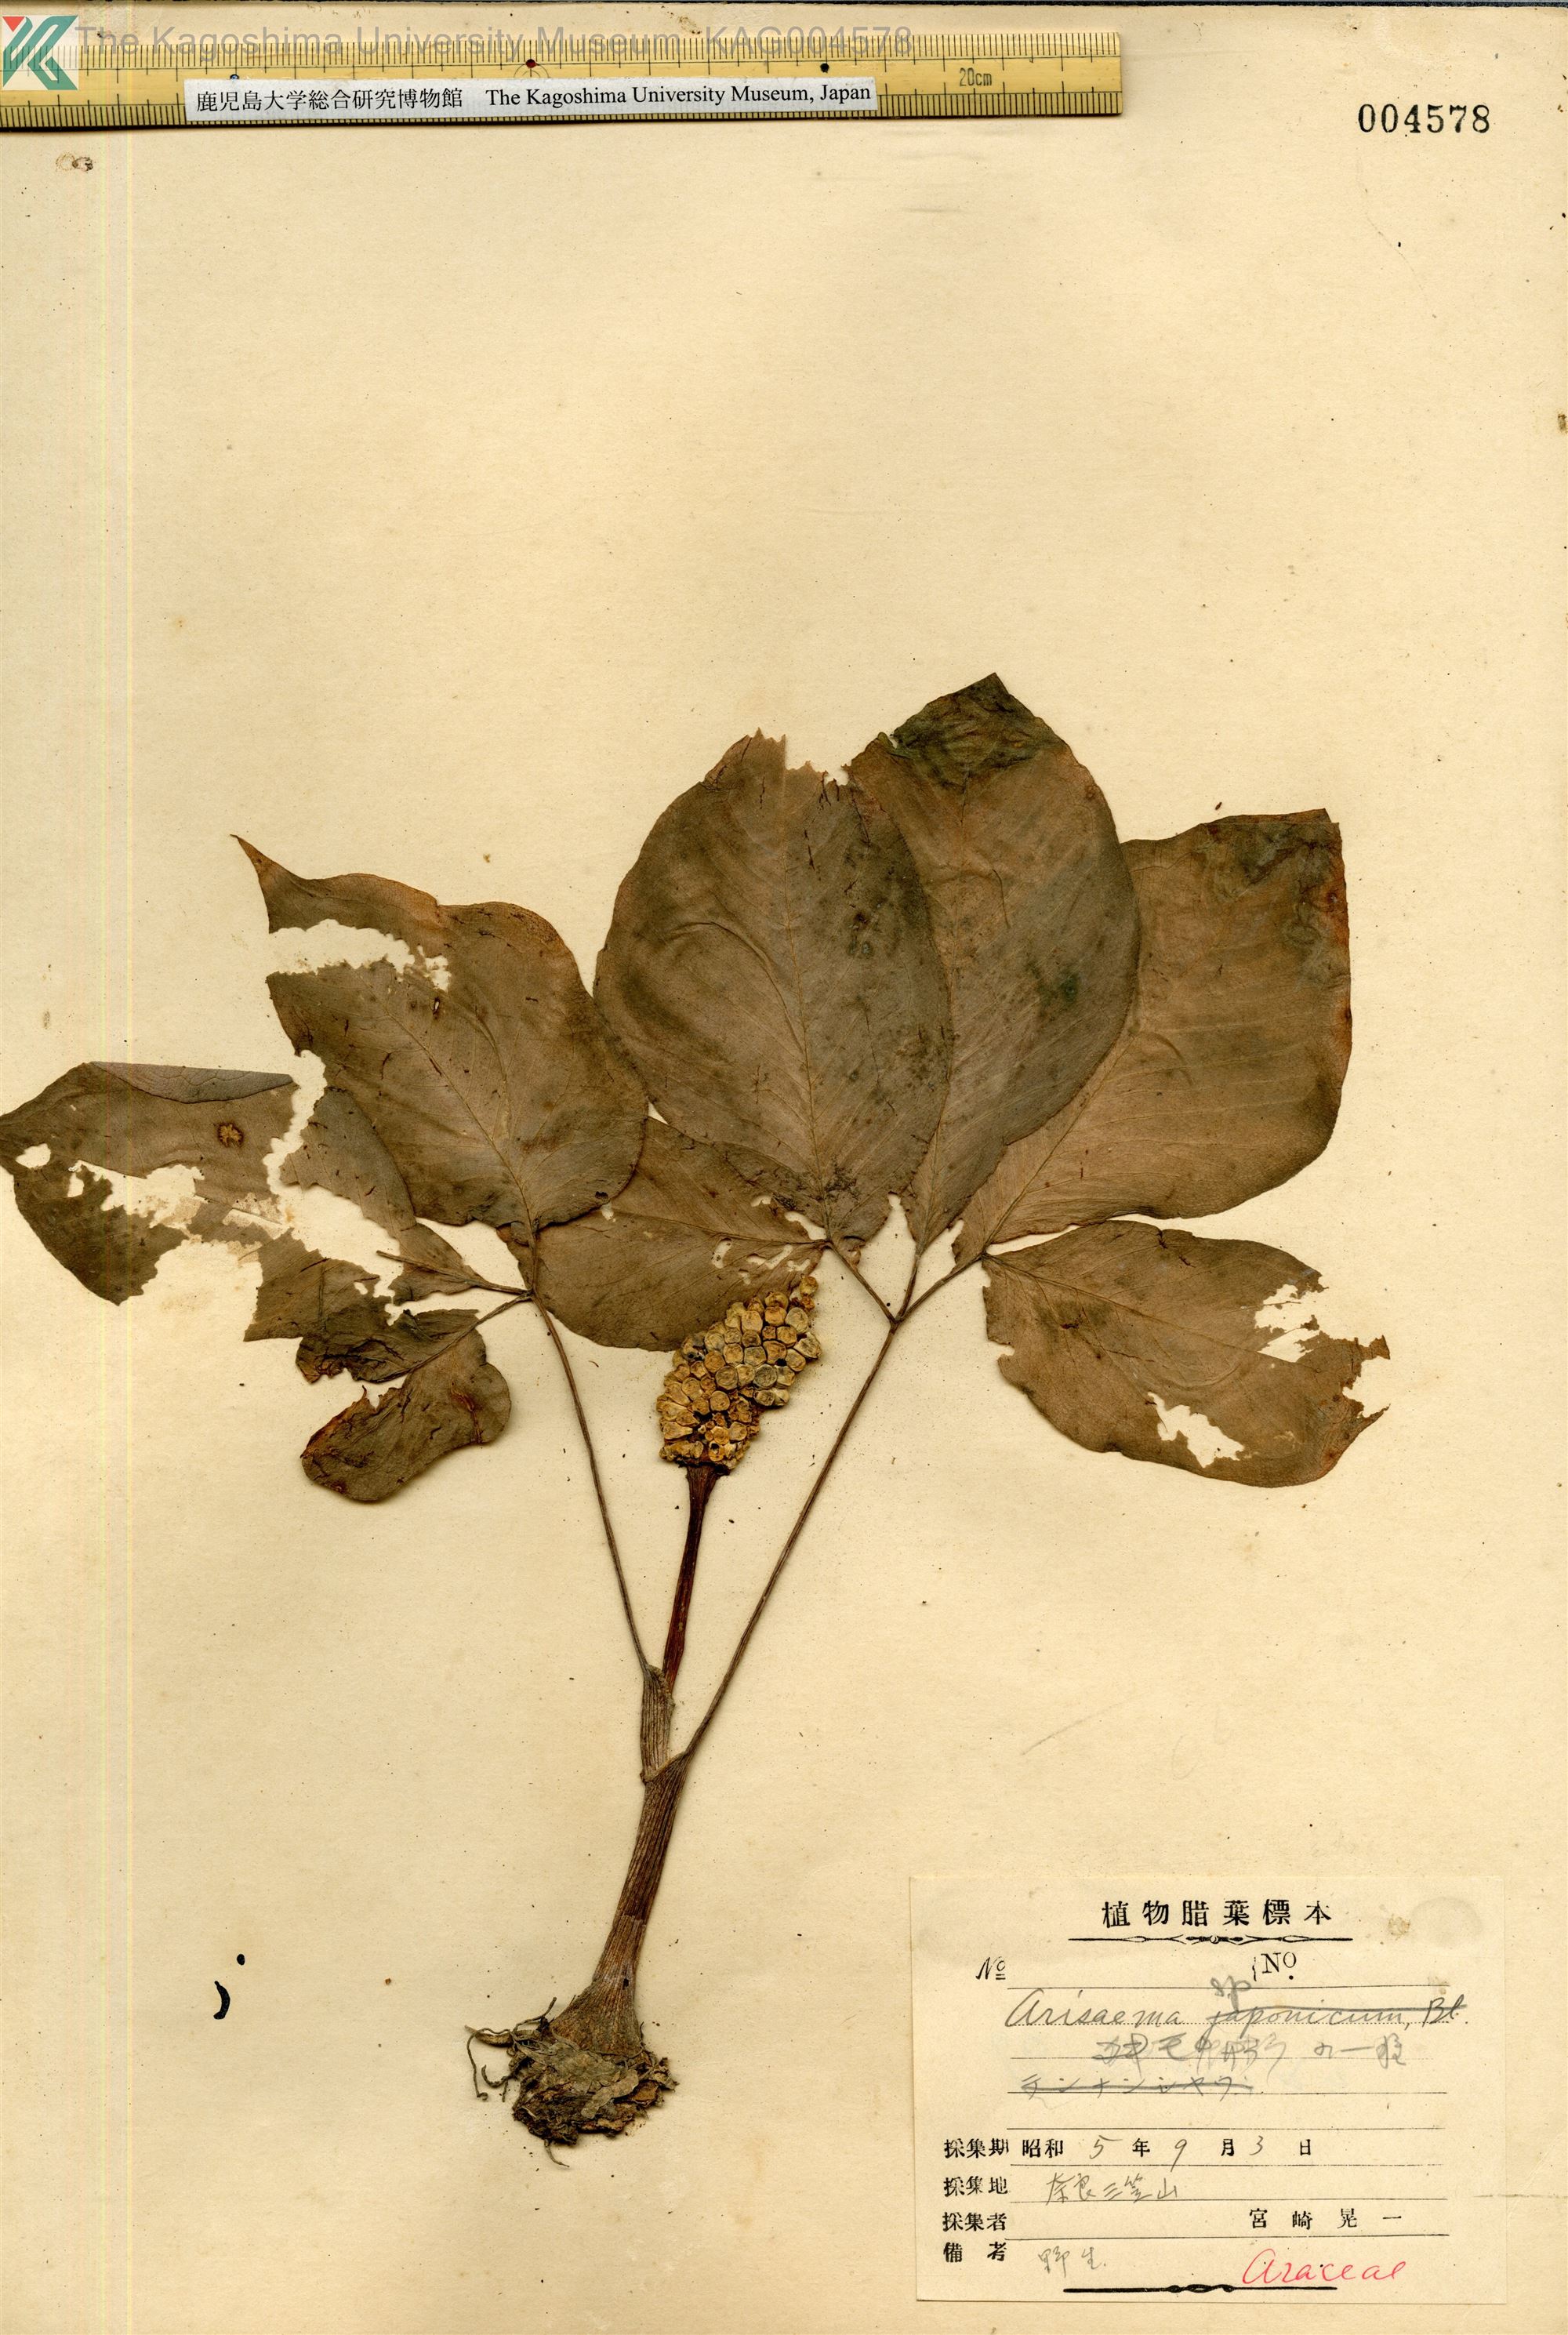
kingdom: Plantae
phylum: Tracheophyta
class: Liliopsida
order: Alismatales
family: Araceae
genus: Arisaema
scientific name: Arisaema
